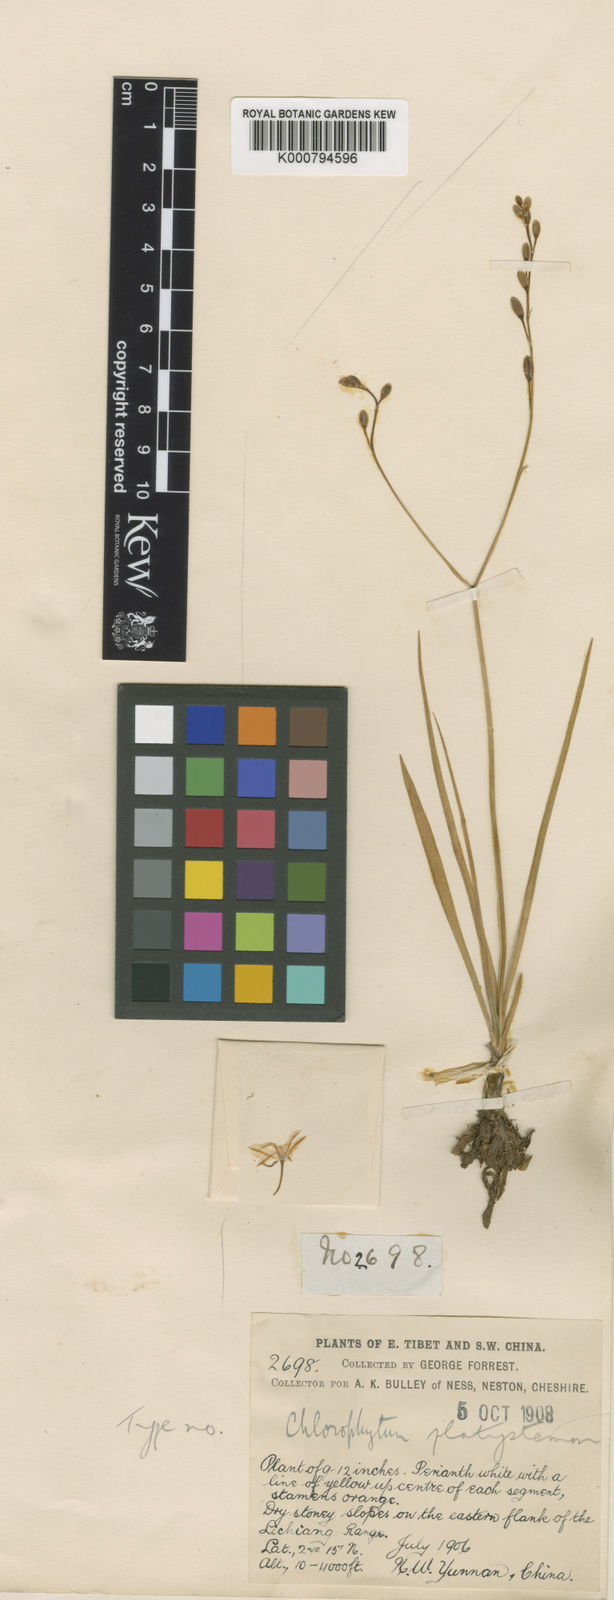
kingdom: Plantae
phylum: Tracheophyta
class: Liliopsida
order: Asparagales
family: Asparagaceae
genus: Chlorophytum
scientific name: Chlorophytum chinense
